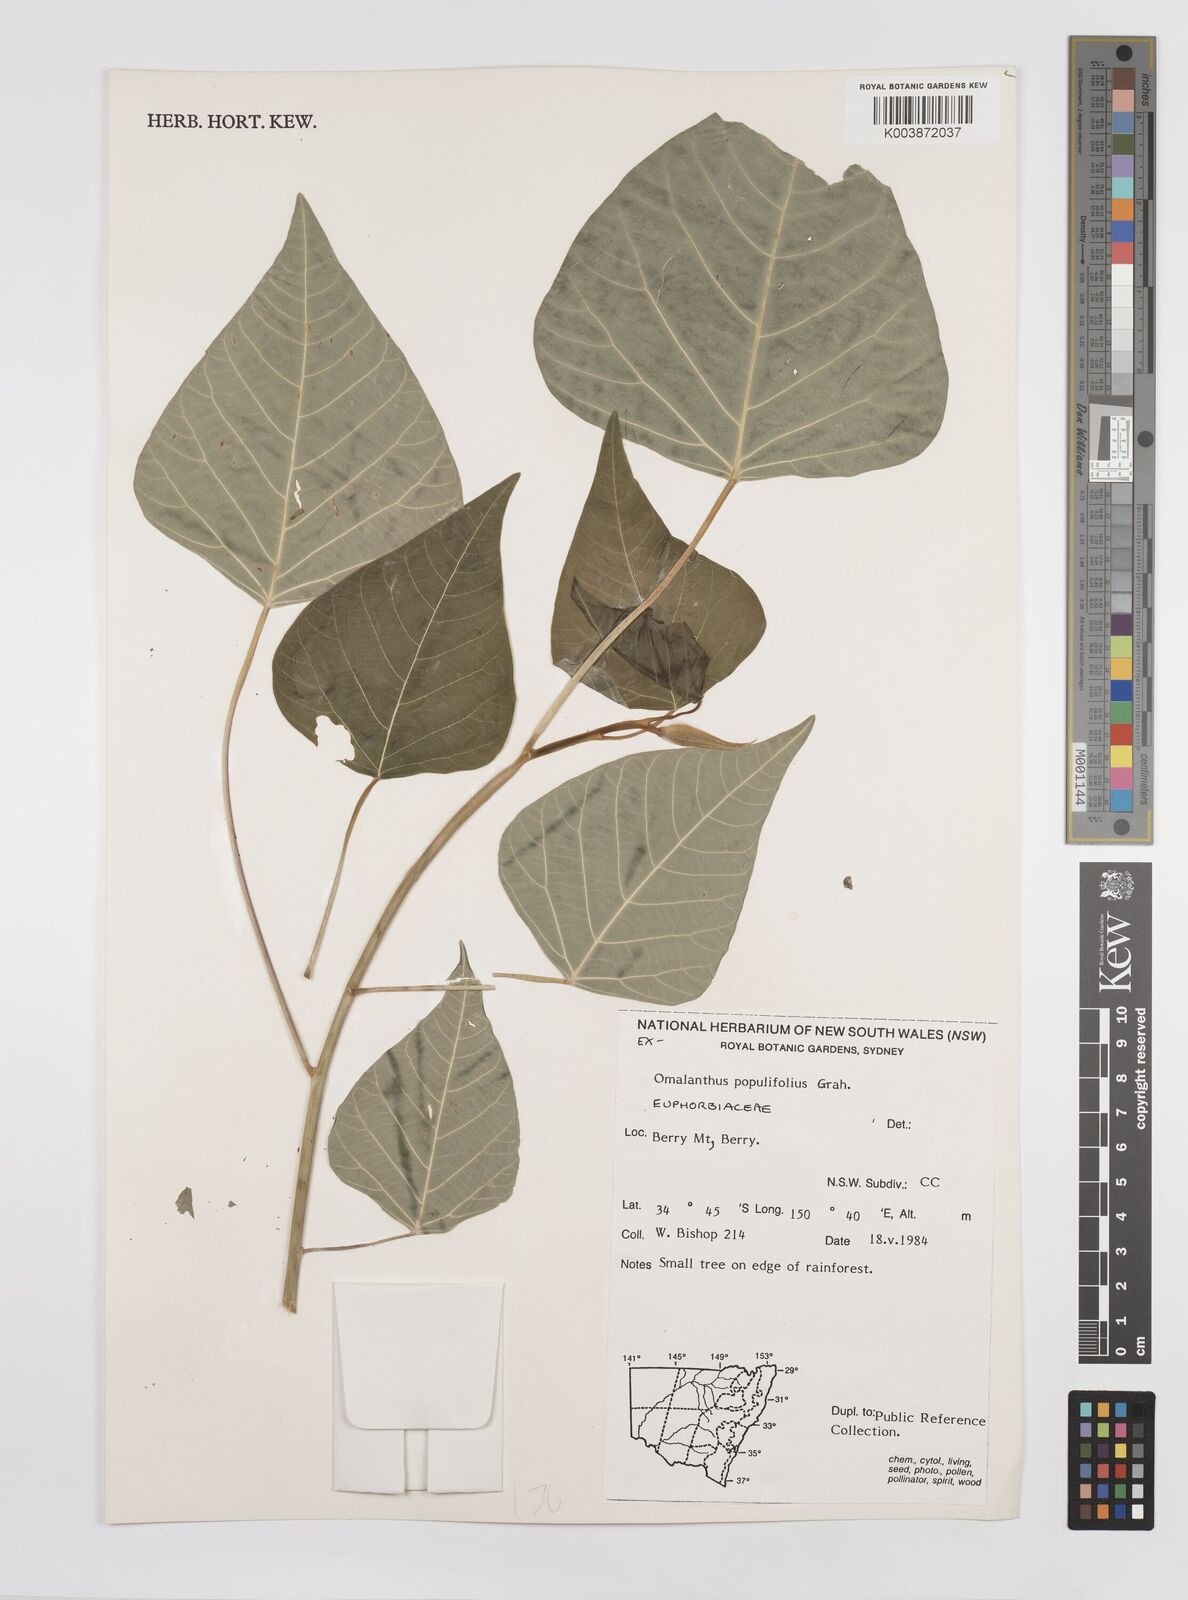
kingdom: Plantae
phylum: Tracheophyta
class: Magnoliopsida
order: Malpighiales
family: Euphorbiaceae
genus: Homalanthus
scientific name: Homalanthus populifolius
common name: Queensland poplar
